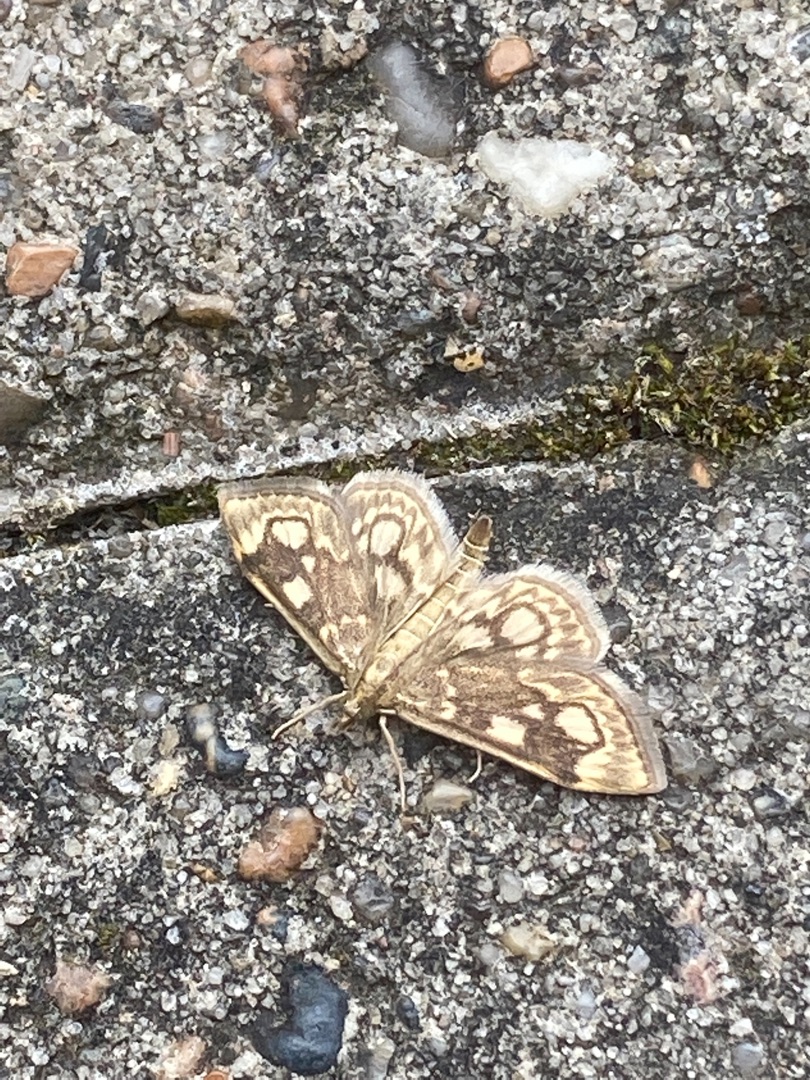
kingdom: Animalia
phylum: Arthropoda
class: Insecta
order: Lepidoptera
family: Crambidae
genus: Anania
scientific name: Anania coronata
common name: Hyldehalvmøl
